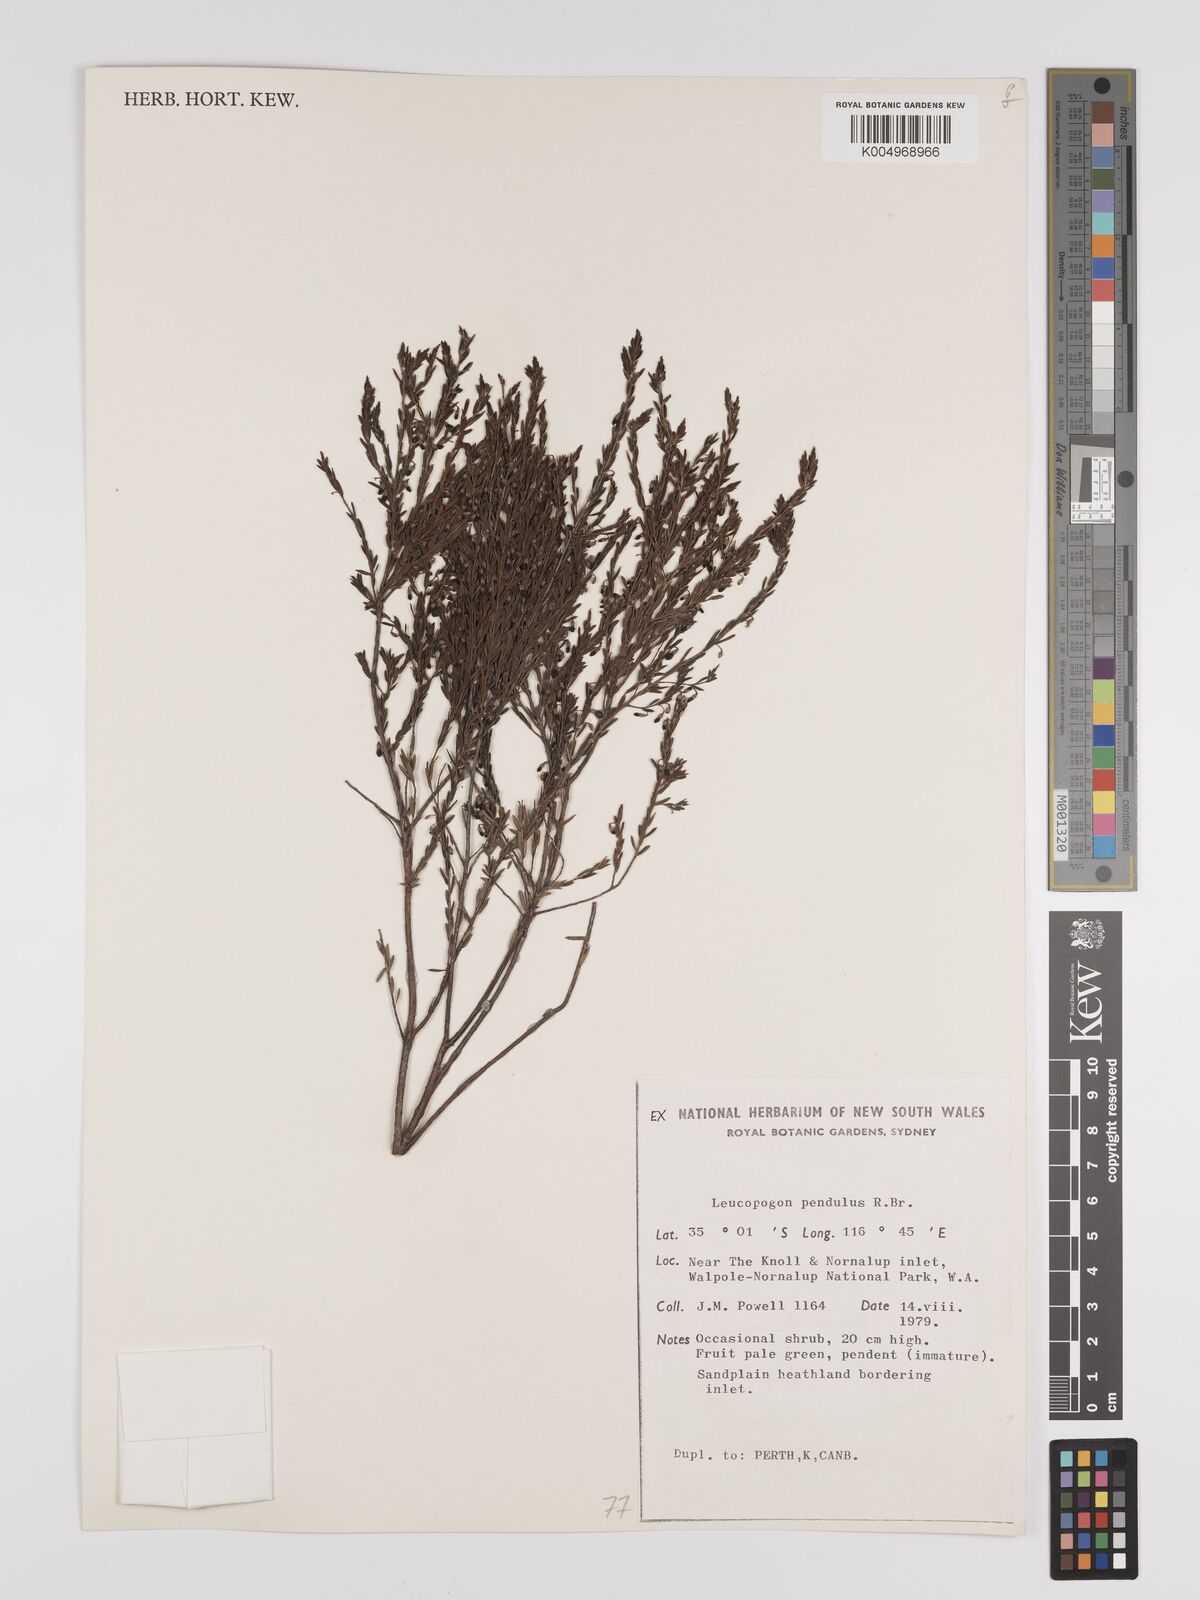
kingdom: Plantae
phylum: Tracheophyta
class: Magnoliopsida
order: Ericales
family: Ericaceae
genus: Styphelia
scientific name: Styphelia pendula
